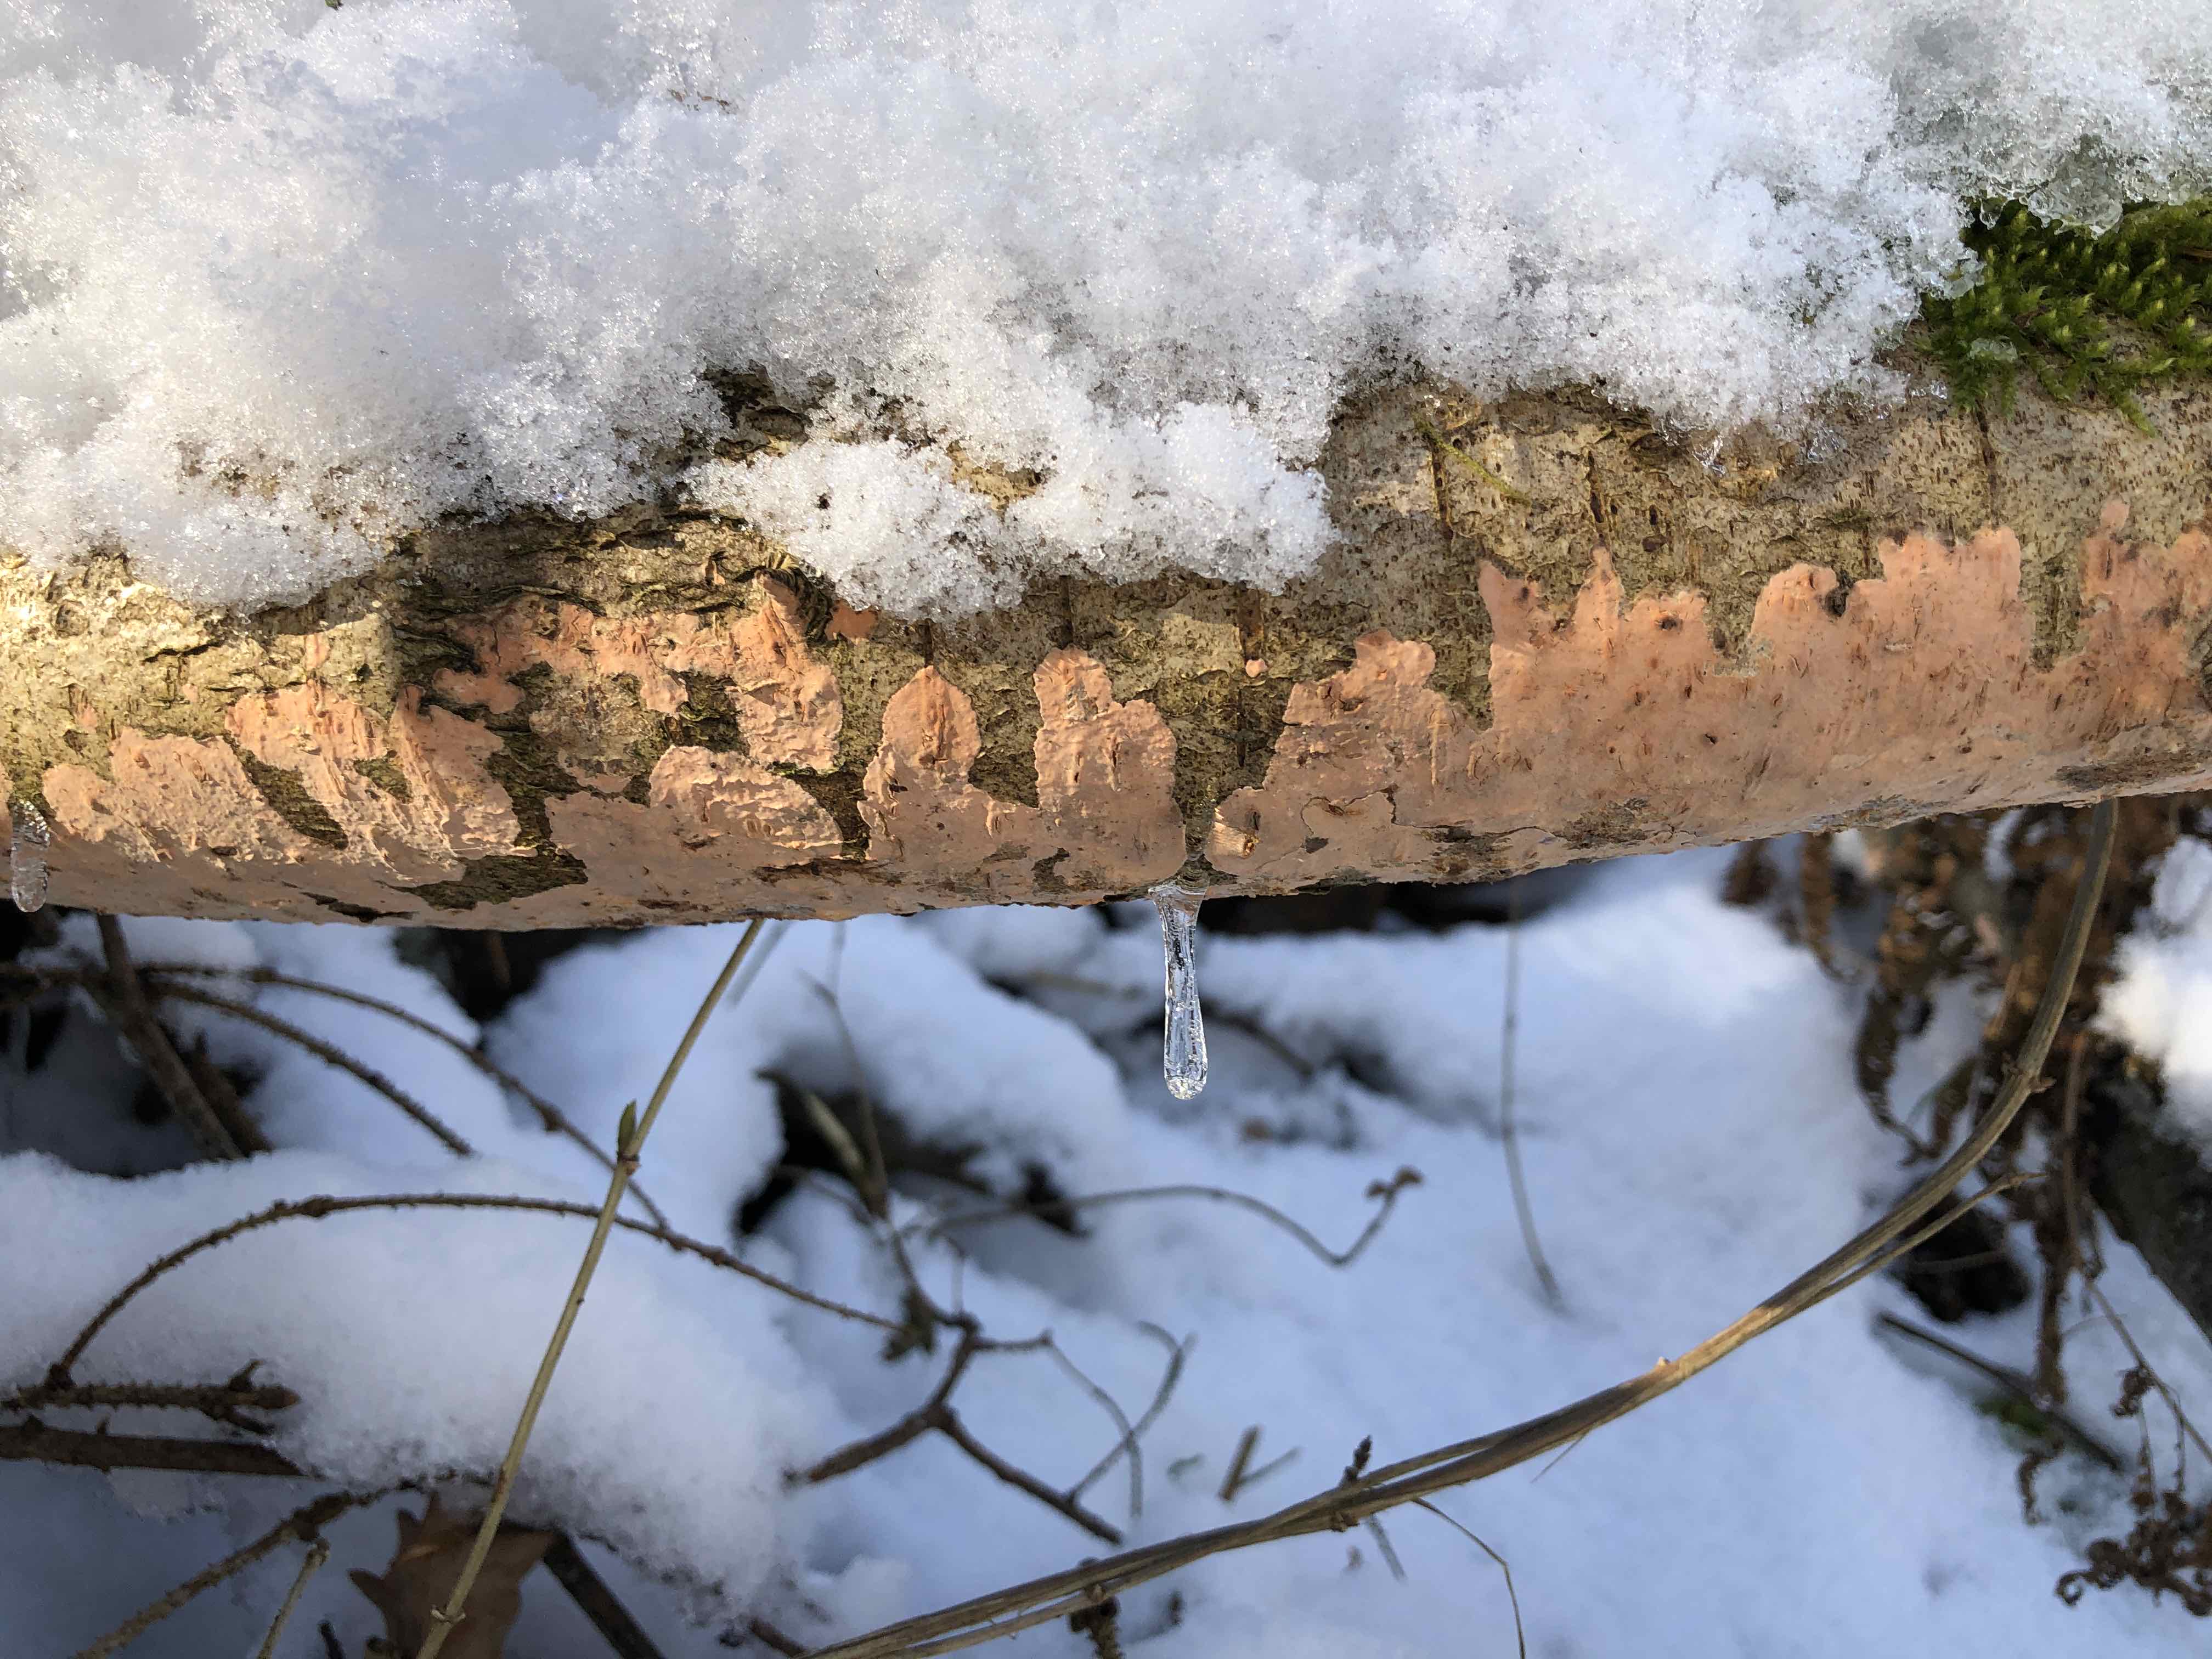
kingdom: Fungi
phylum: Basidiomycota
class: Agaricomycetes
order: Russulales
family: Peniophoraceae
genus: Peniophora
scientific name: Peniophora incarnata
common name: laksefarvet voksskind
